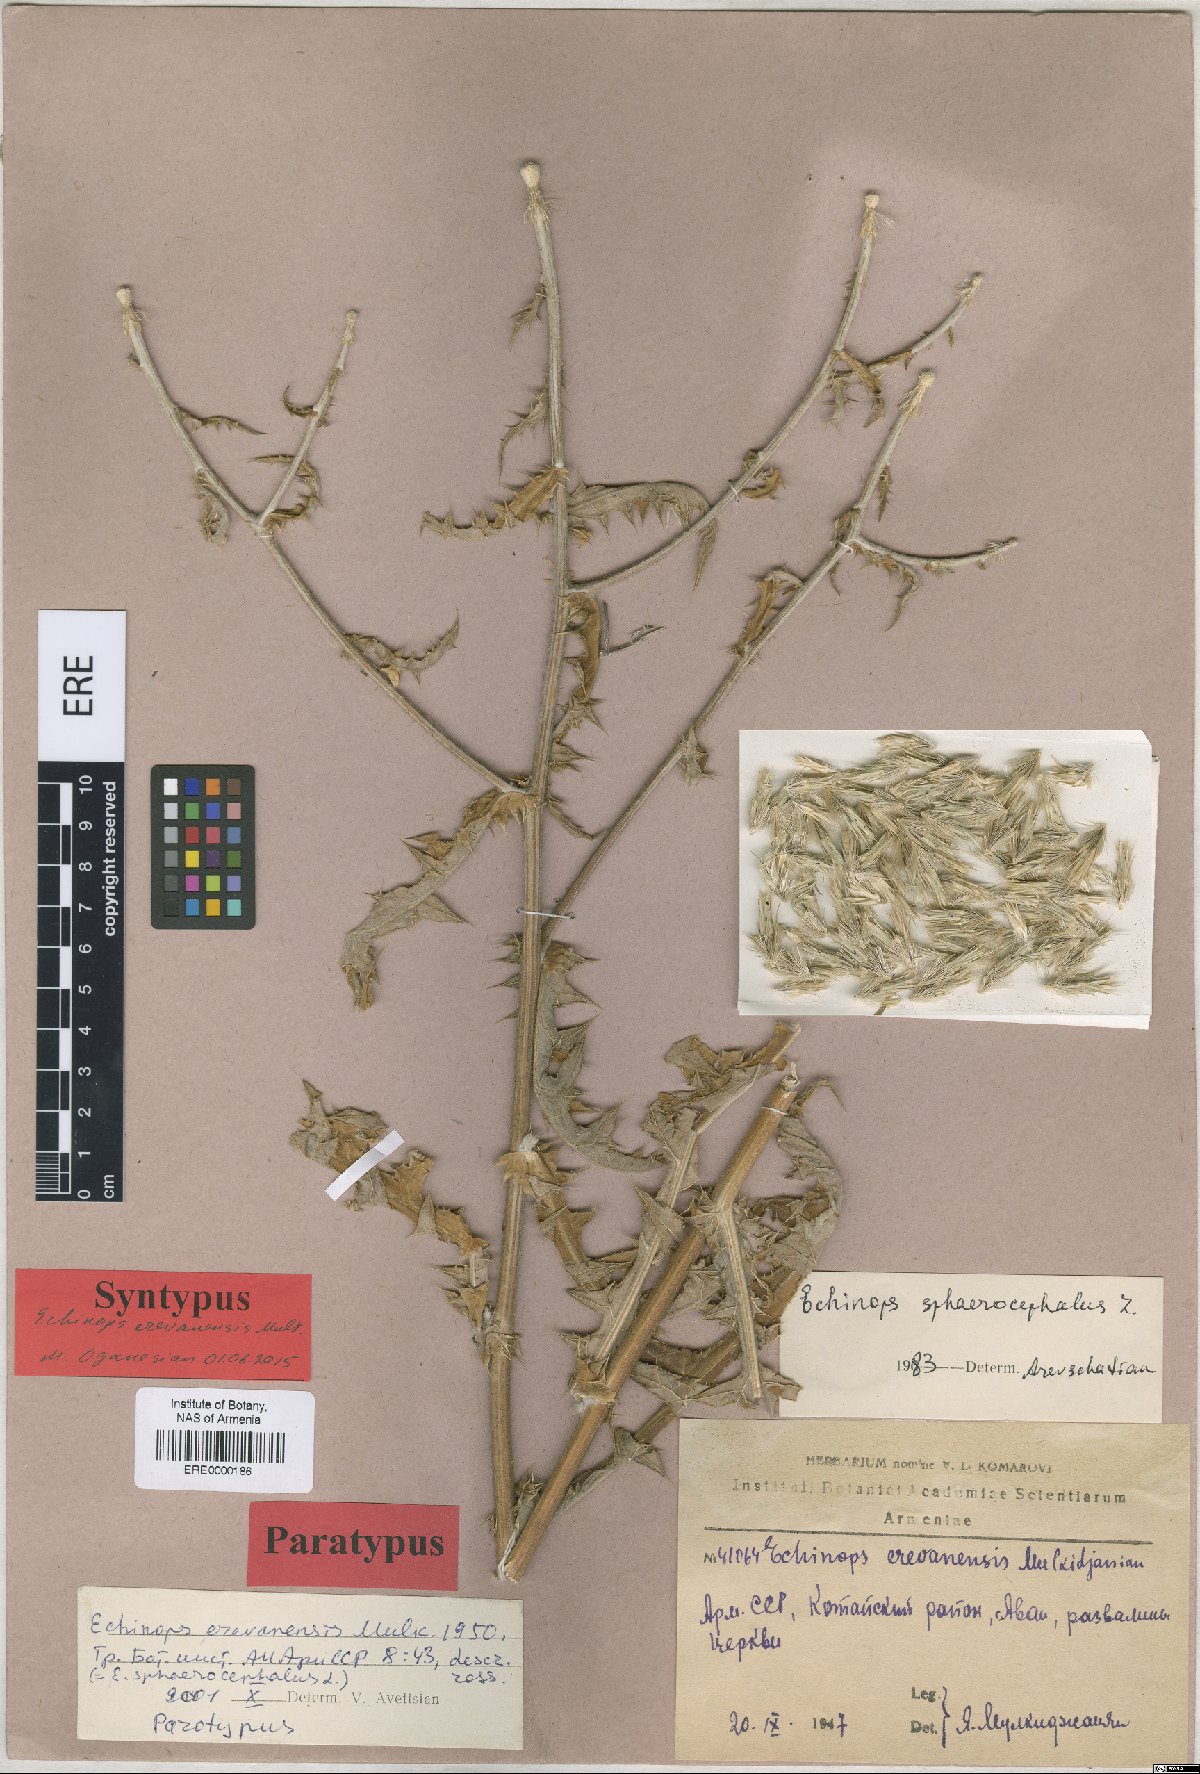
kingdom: Plantae
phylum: Tracheophyta
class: Magnoliopsida
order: Asterales
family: Asteraceae
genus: Echinops
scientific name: Echinops sphaerocephalus
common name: Glandular globe-thistle
